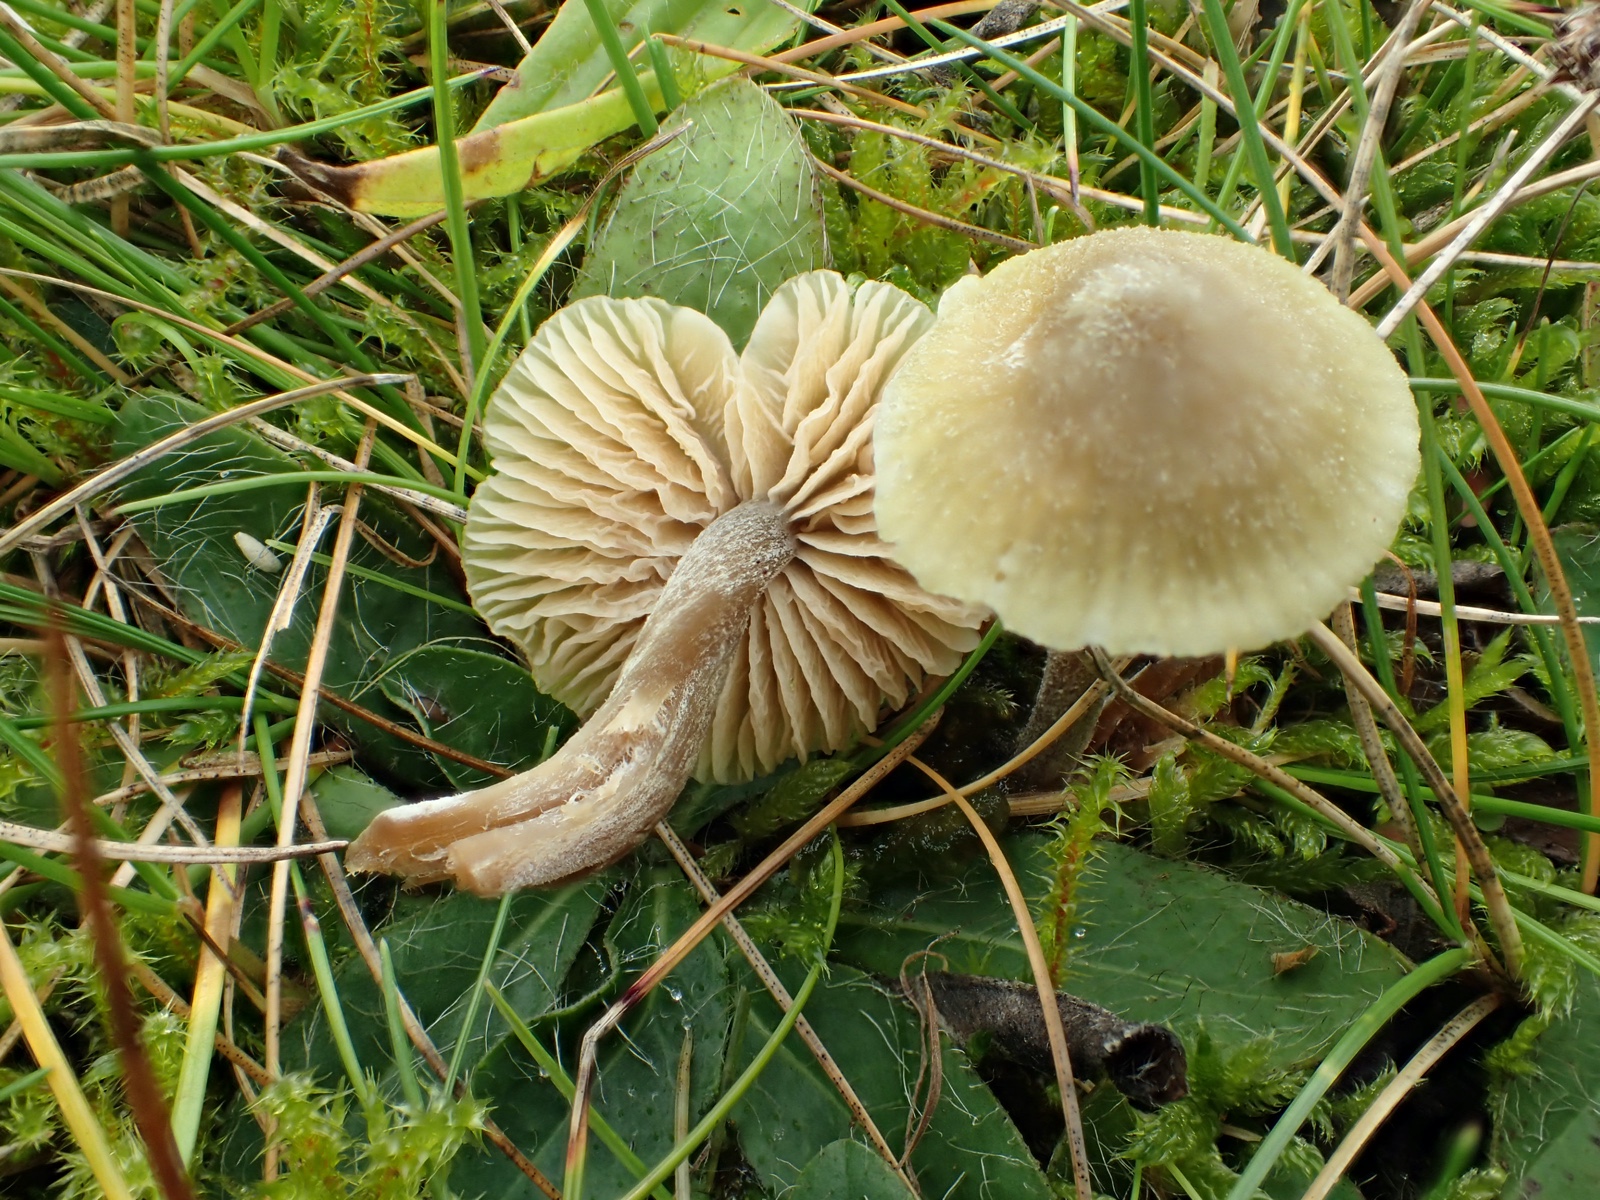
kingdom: Fungi
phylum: Basidiomycota
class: Agaricomycetes
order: Agaricales
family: Entolomataceae
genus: Entoloma
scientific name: Entoloma pleopodium
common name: duftende rødblad
